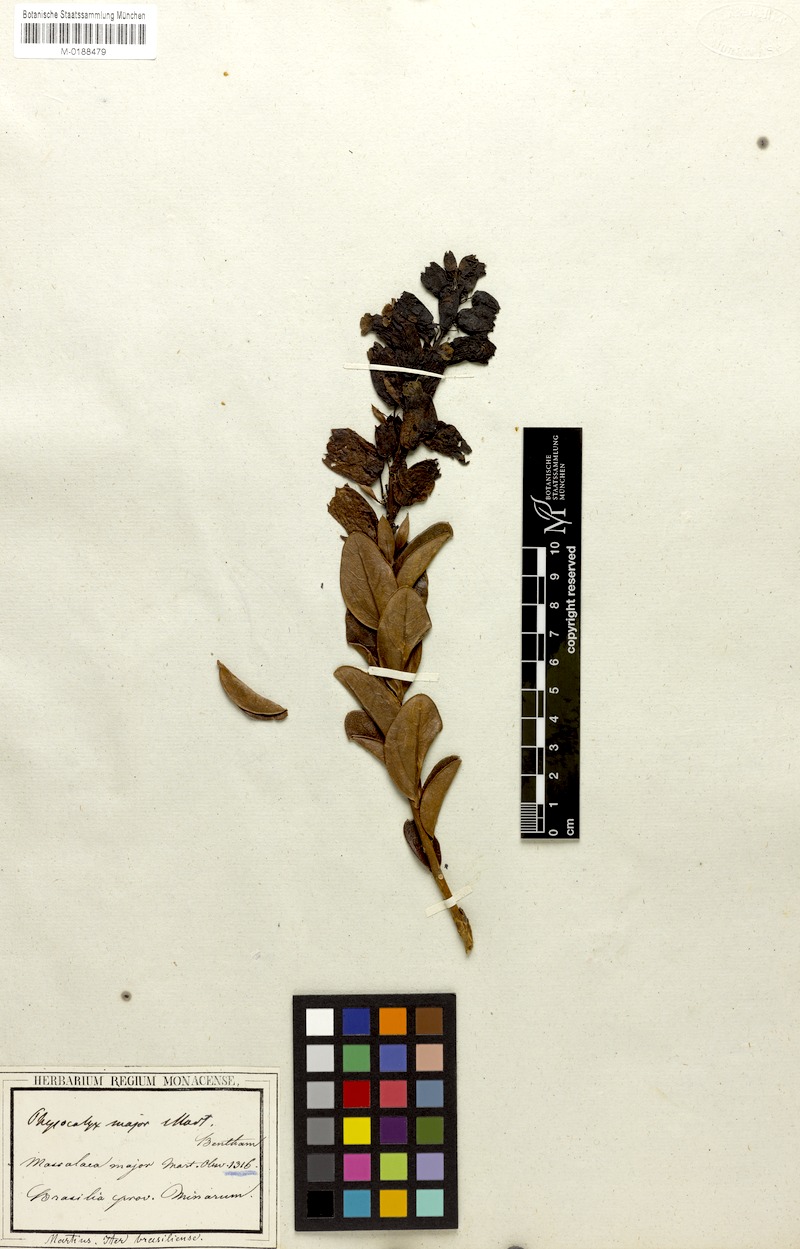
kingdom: Plantae
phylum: Tracheophyta
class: Magnoliopsida
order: Lamiales
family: Orobanchaceae
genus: Physocalyx
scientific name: Physocalyx major
